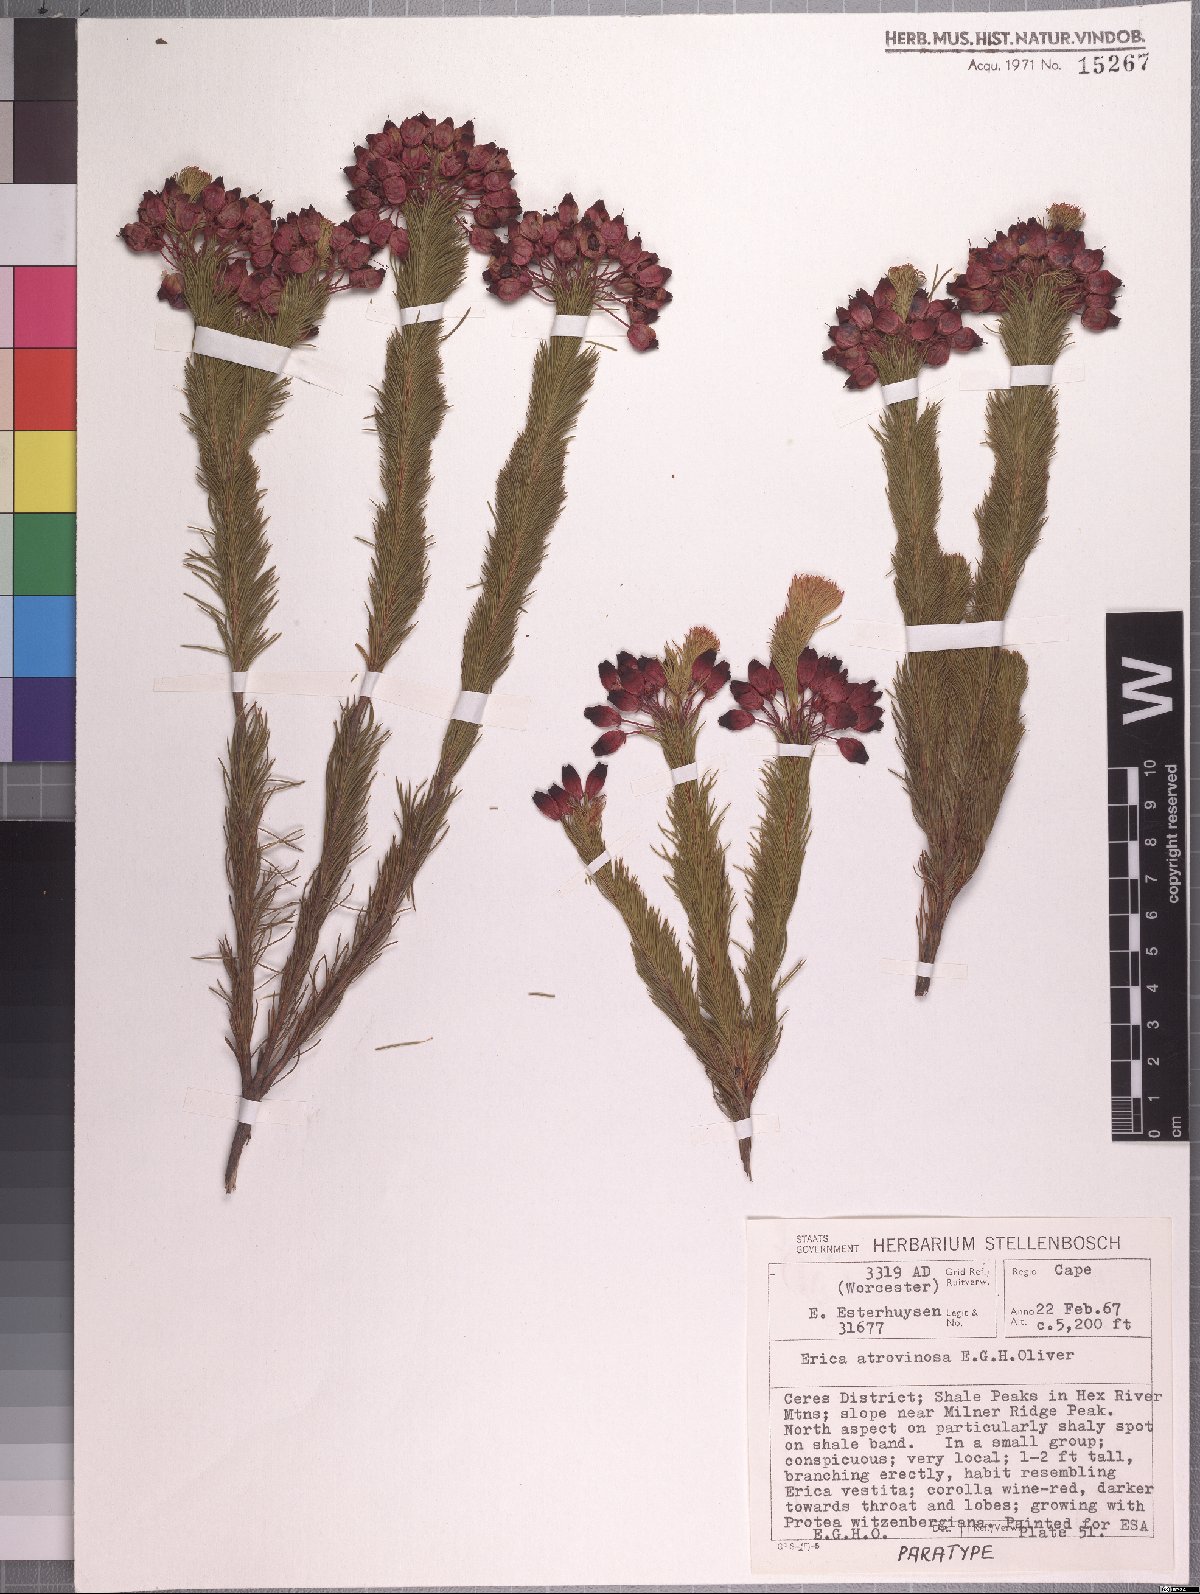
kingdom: Plantae
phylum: Tracheophyta
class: Magnoliopsida
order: Ericales
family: Ericaceae
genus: Erica
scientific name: Erica atrovinosa
